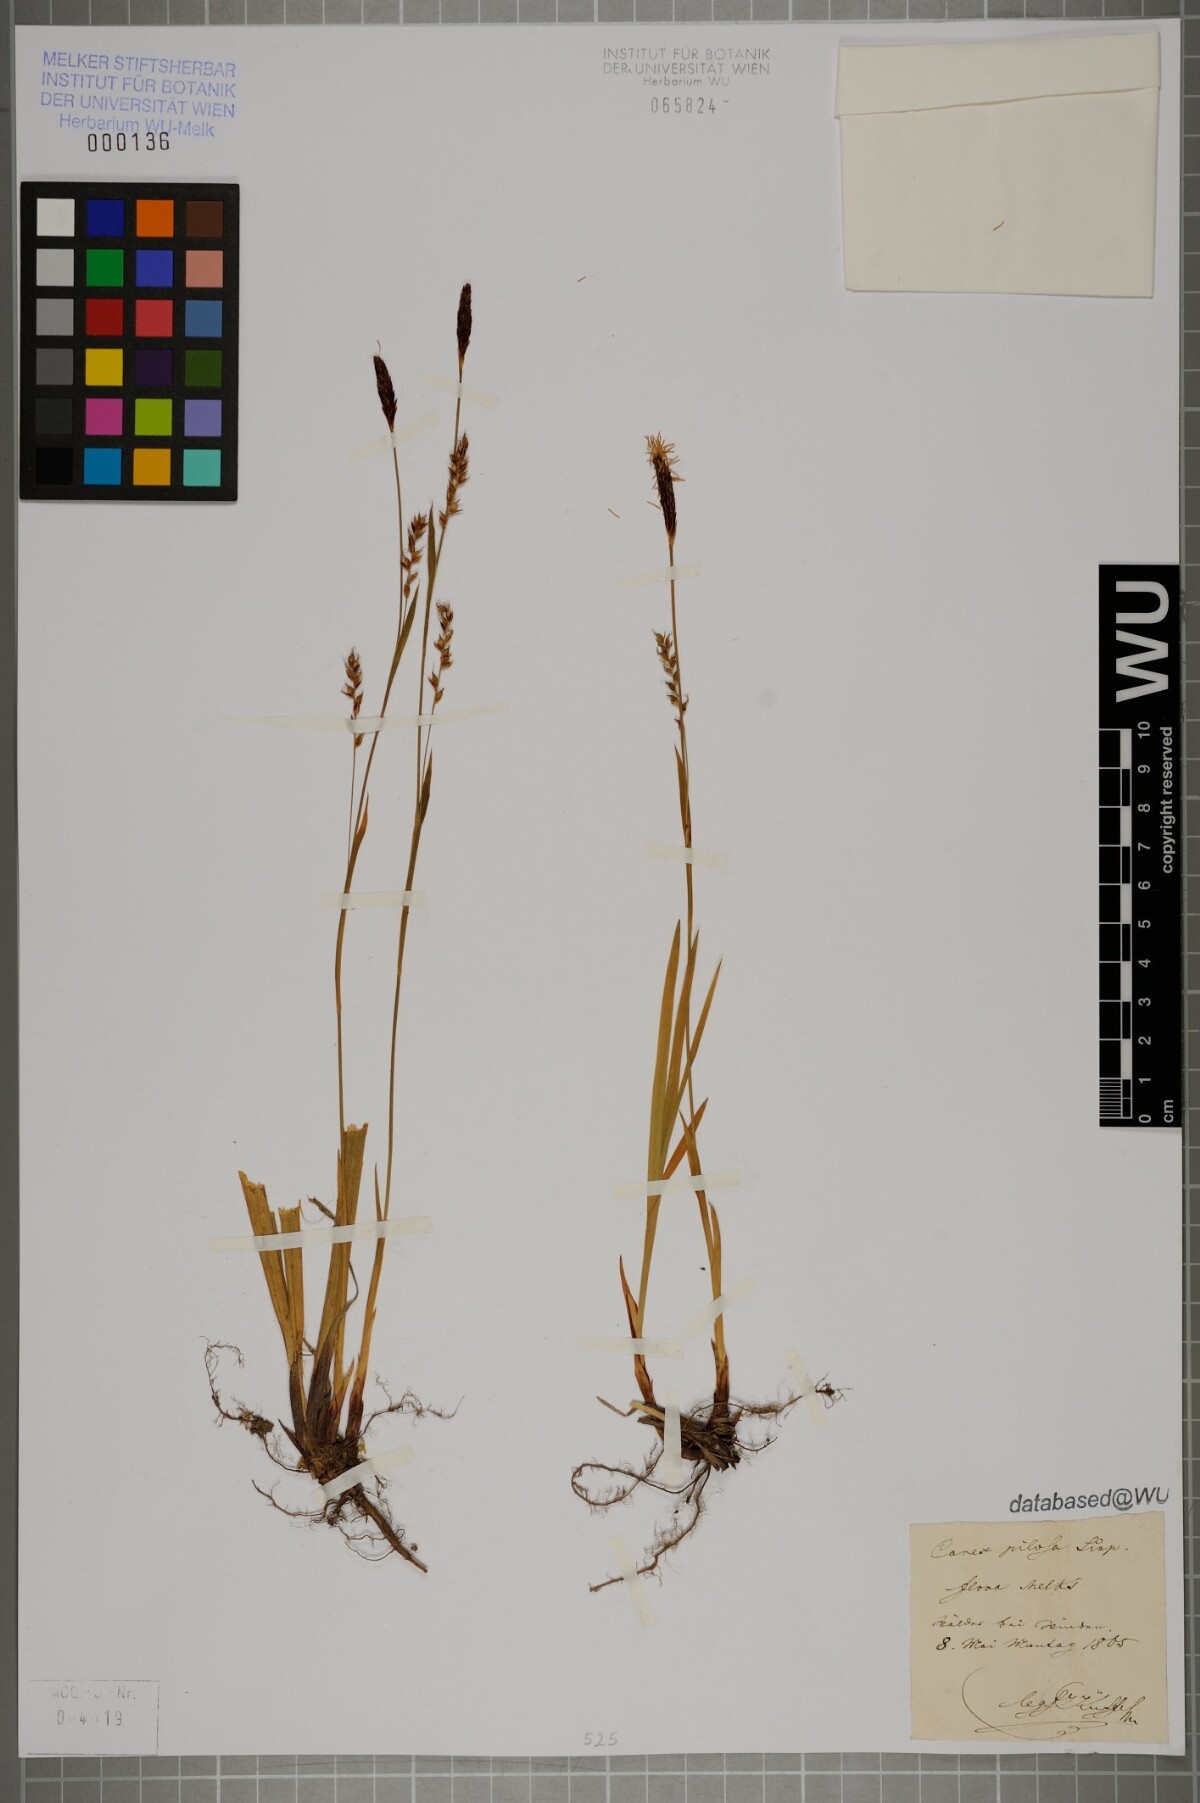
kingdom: Plantae
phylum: Tracheophyta
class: Liliopsida
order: Poales
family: Cyperaceae
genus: Carex
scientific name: Carex pilosa
